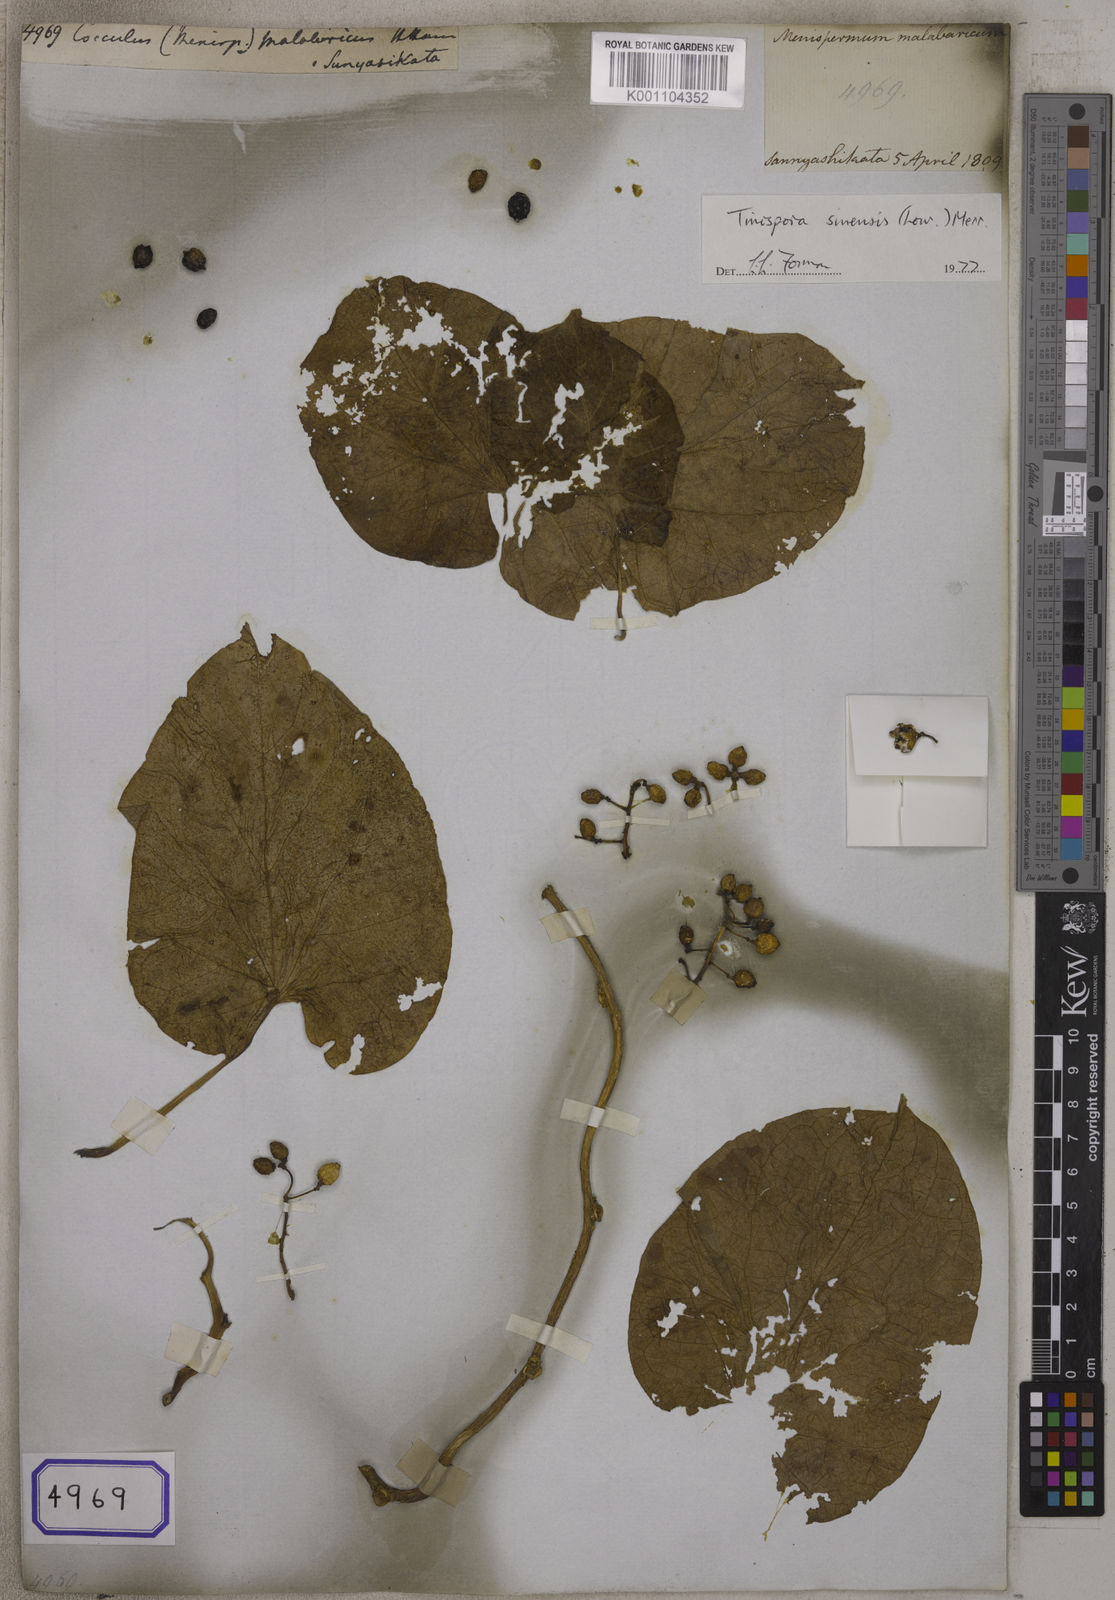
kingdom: Plantae
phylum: Tracheophyta
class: Magnoliopsida
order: Ranunculales
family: Menispermaceae
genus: Tinospora
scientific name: Tinospora sinensis
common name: Chinese tinospora
